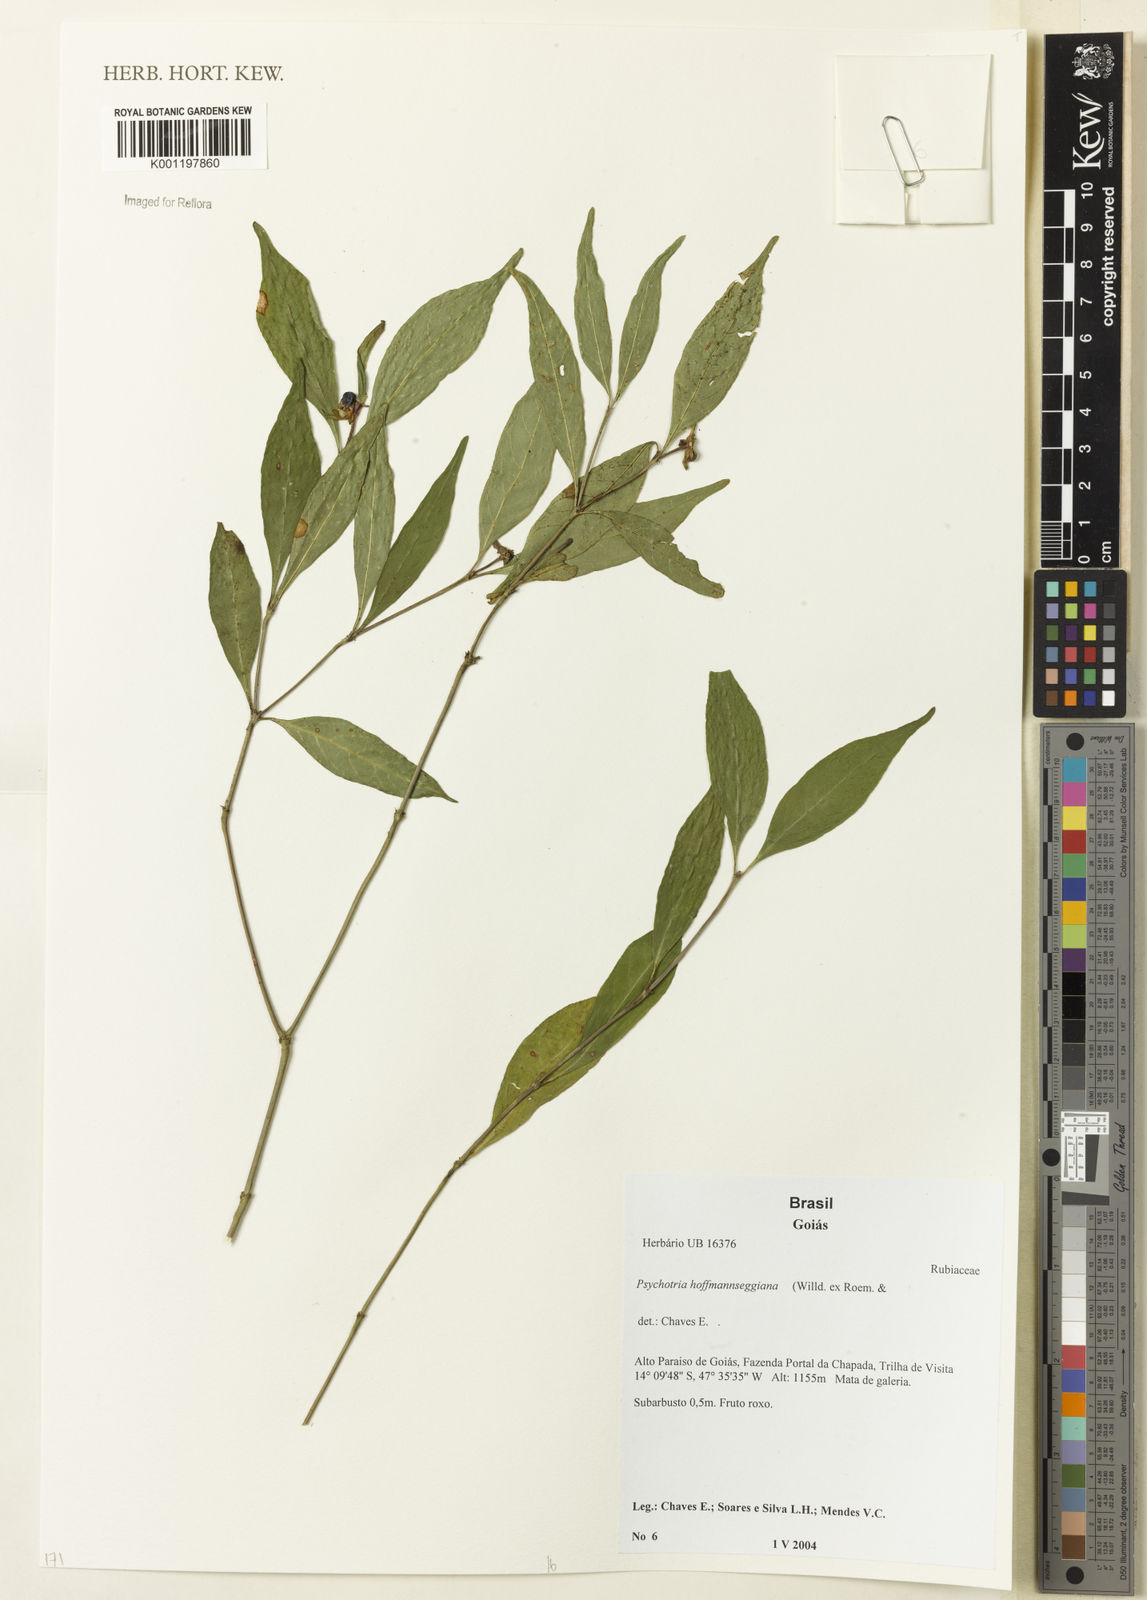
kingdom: Plantae
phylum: Tracheophyta
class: Magnoliopsida
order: Gentianales
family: Rubiaceae
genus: Psychotria
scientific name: Psychotria
